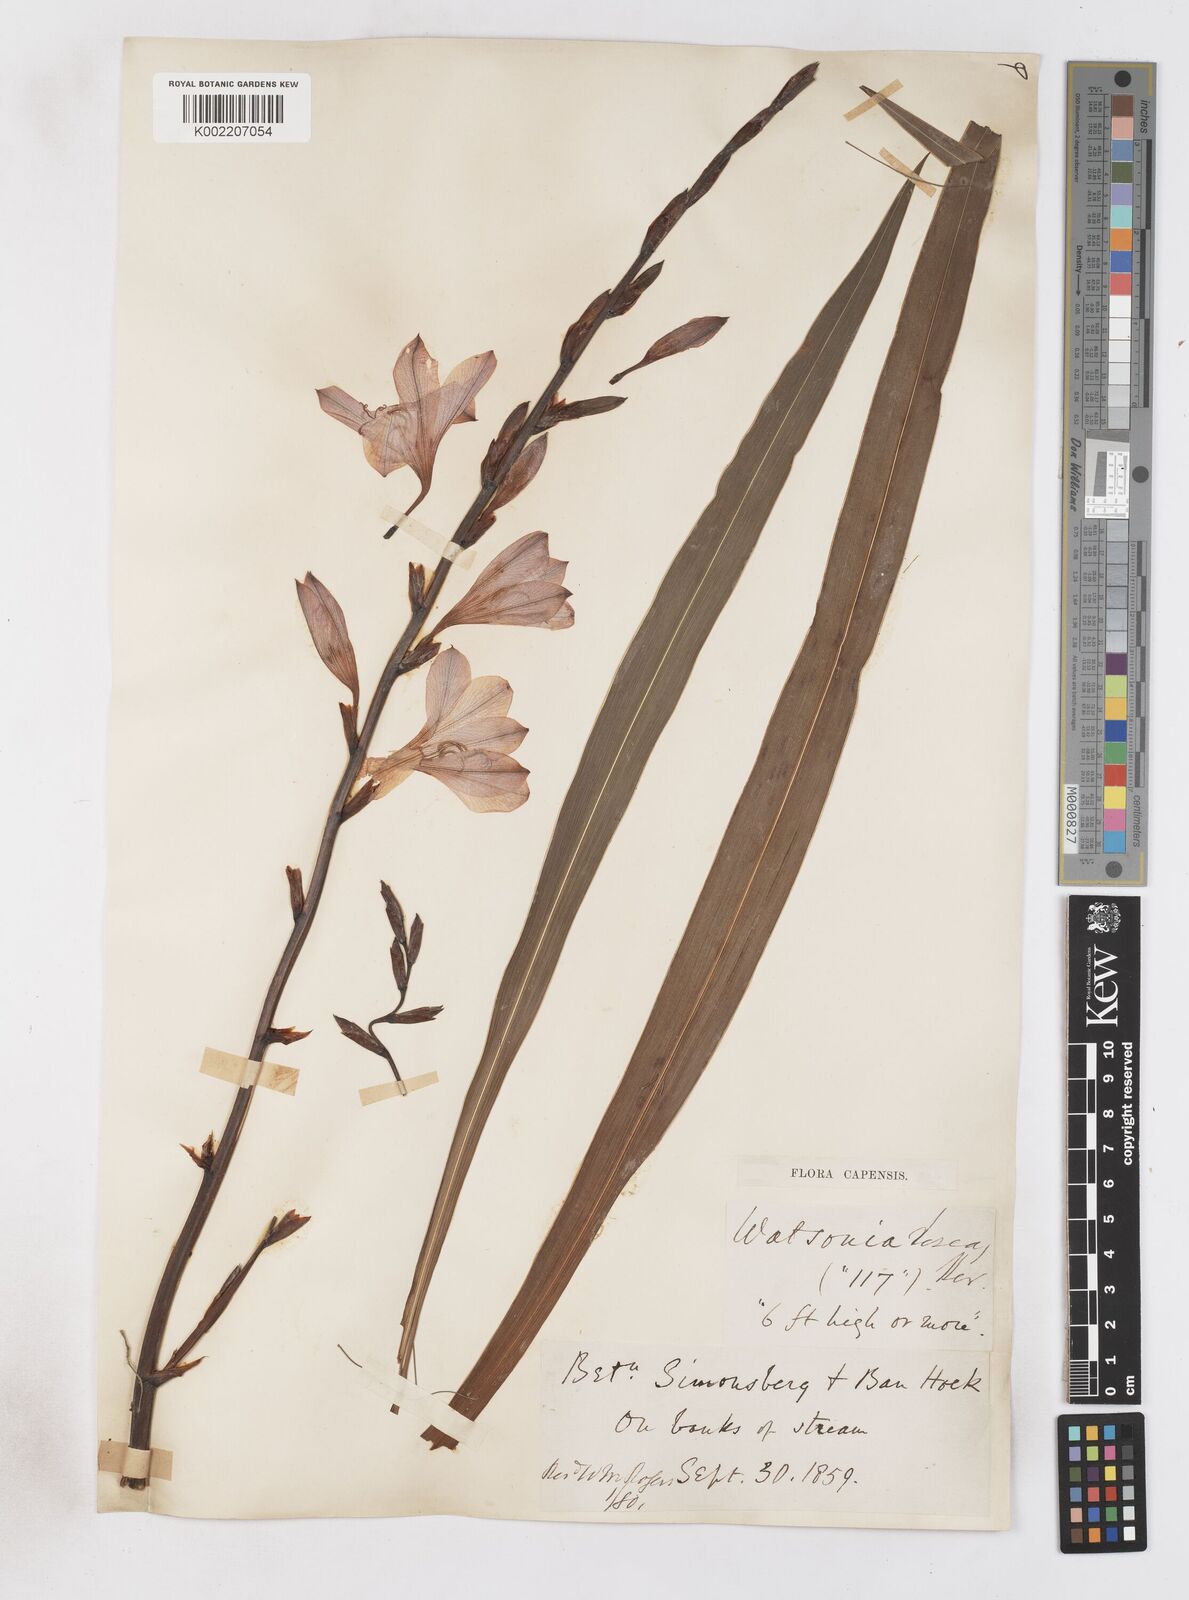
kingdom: Plantae
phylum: Tracheophyta
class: Liliopsida
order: Asparagales
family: Iridaceae
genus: Watsonia
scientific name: Watsonia borbonica
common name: Bugle-lily
